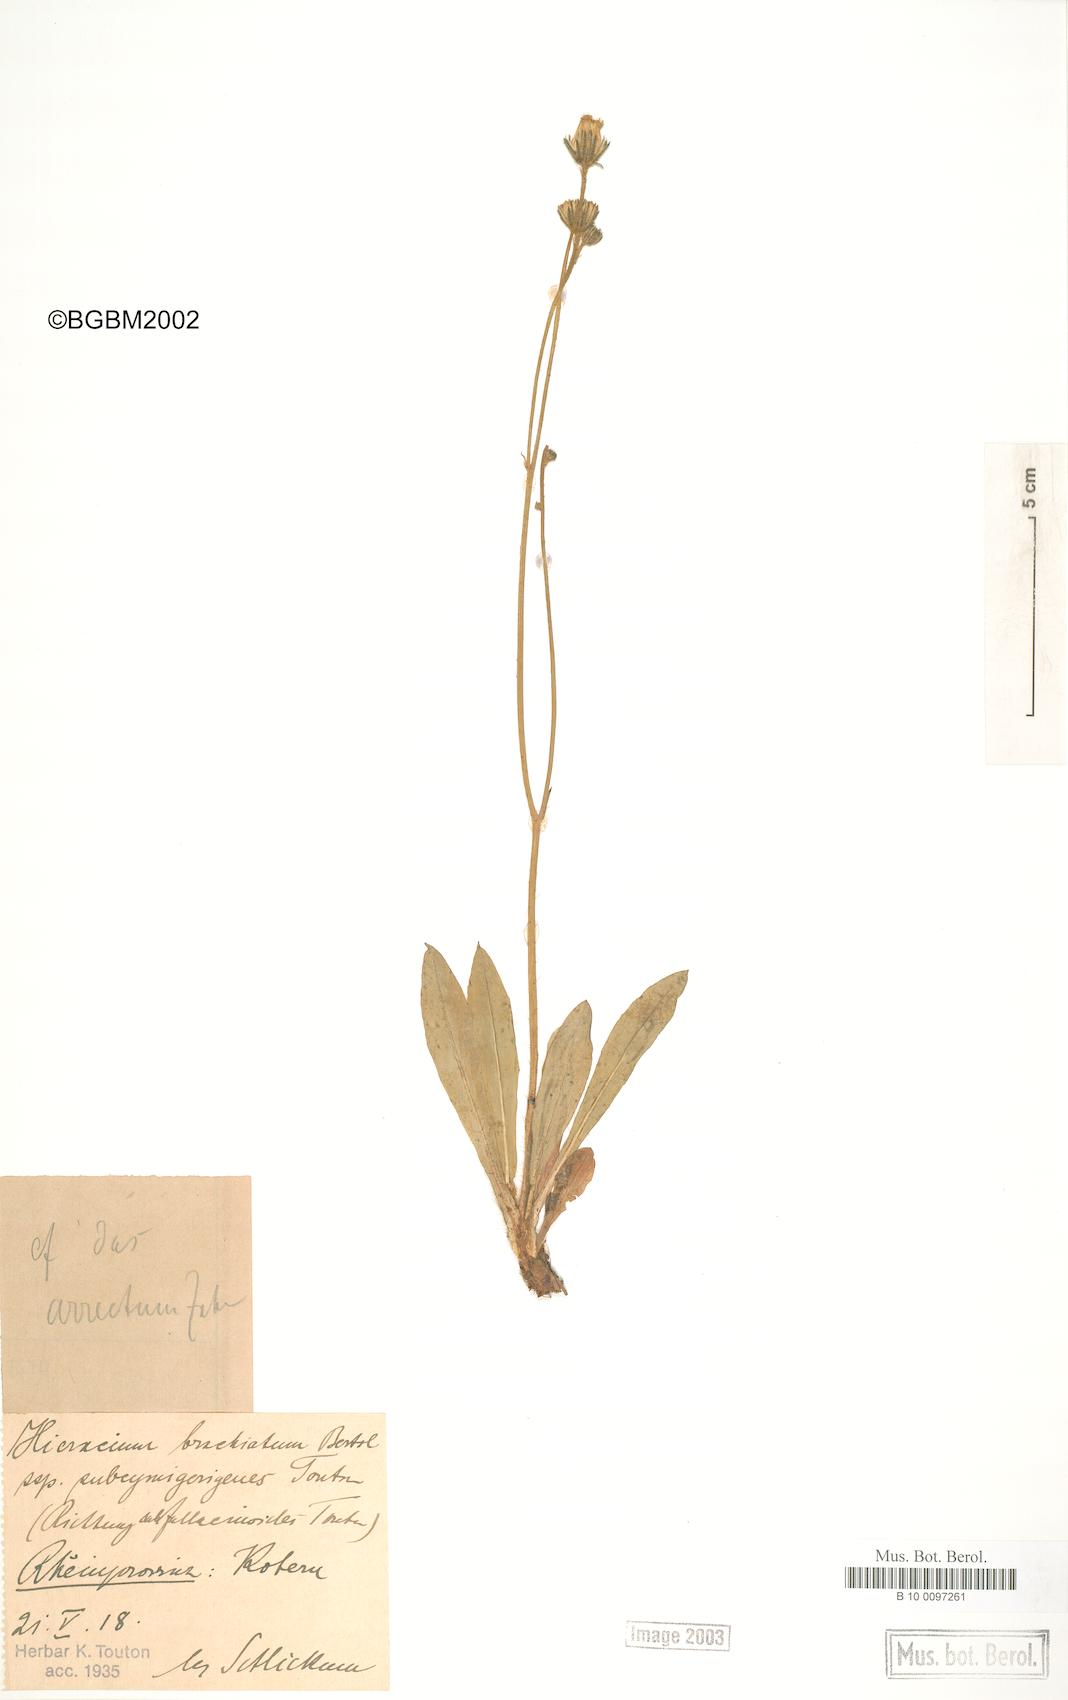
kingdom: Plantae
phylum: Tracheophyta
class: Magnoliopsida
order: Asterales
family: Asteraceae
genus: Pilosella
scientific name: Pilosella acutifolia
